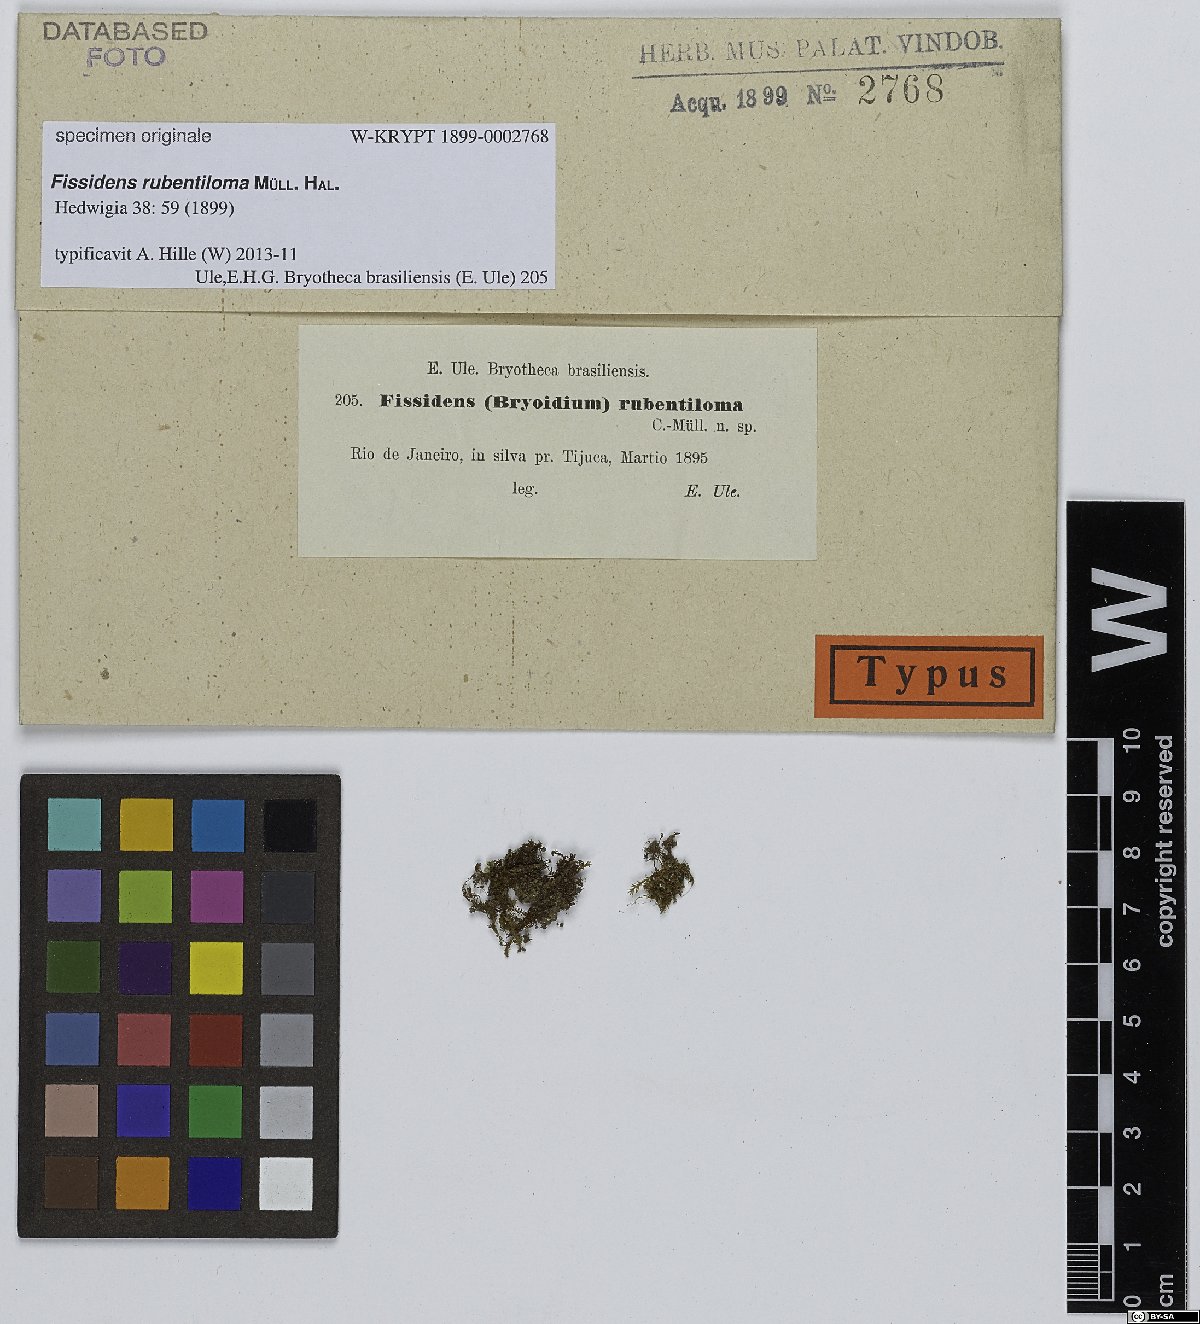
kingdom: Plantae
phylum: Bryophyta
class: Bryopsida
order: Dicranales
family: Fissidentaceae
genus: Fissidens
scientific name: Fissidens intromarginatus
